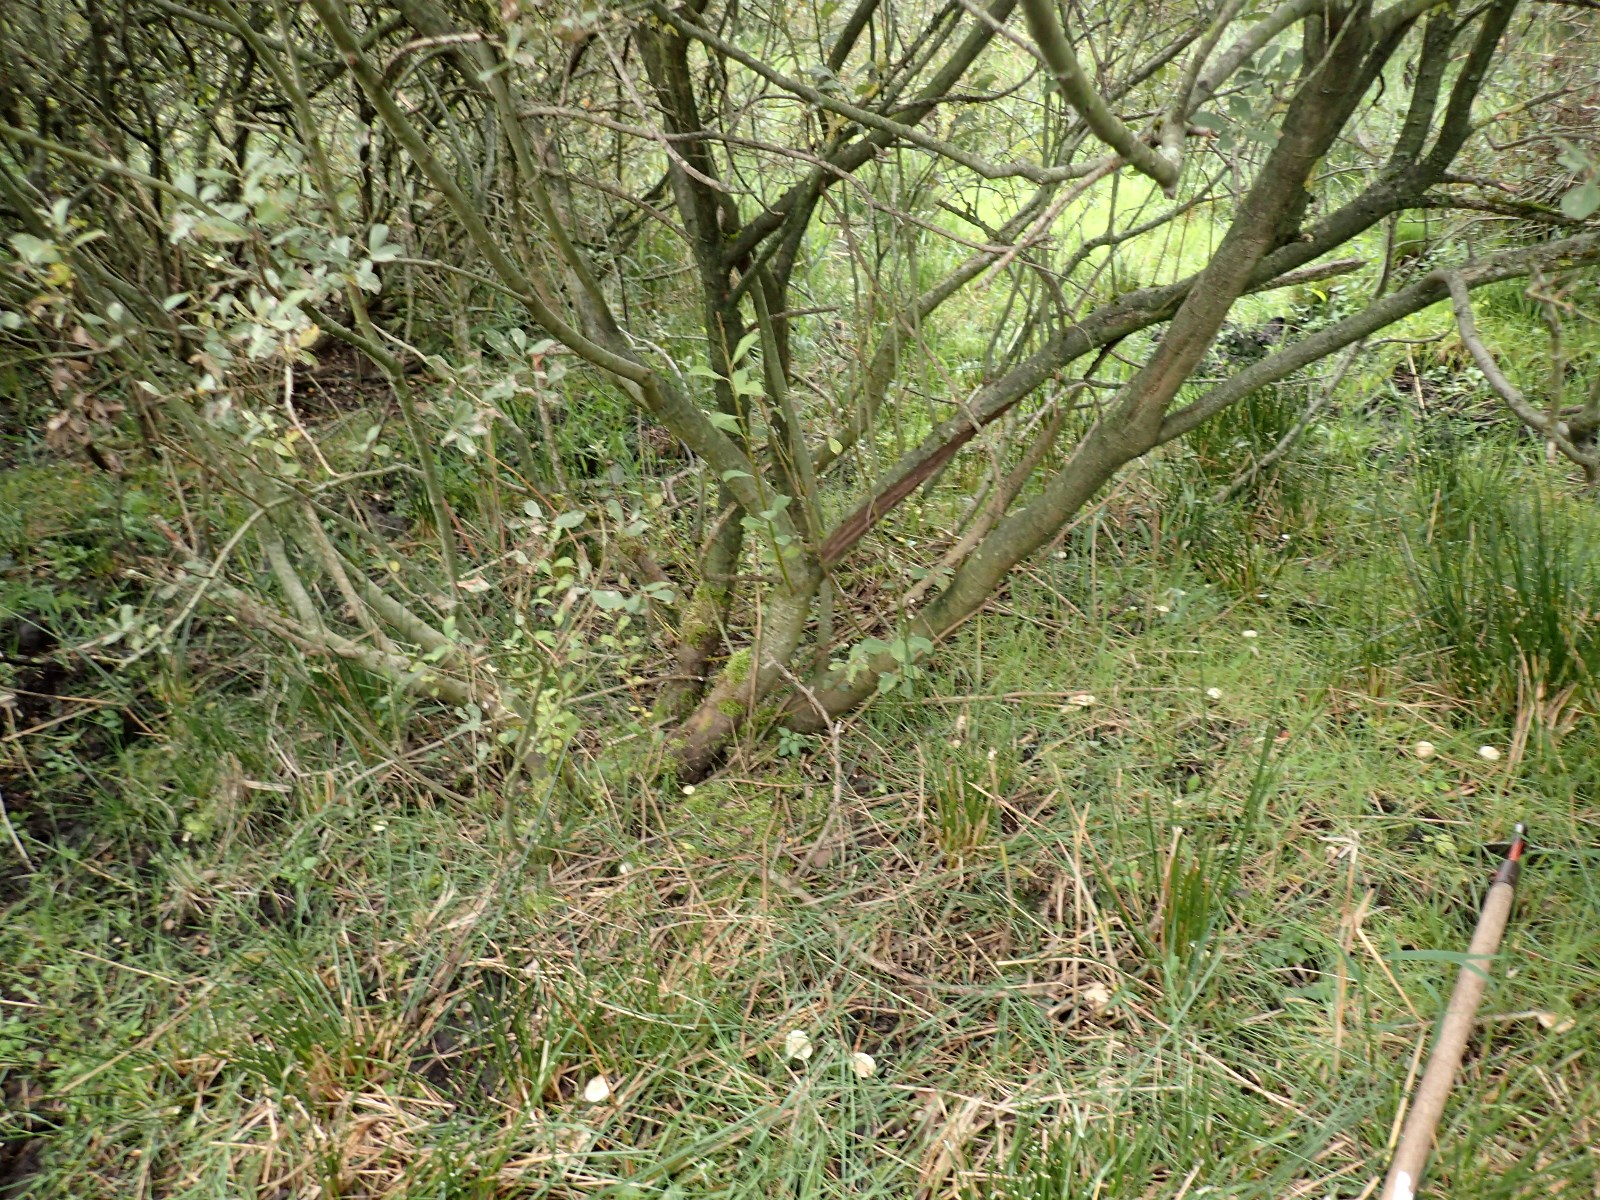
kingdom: Fungi
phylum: Basidiomycota
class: Agaricomycetes
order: Russulales
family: Russulaceae
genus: Lactarius
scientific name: Lactarius aspideus
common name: pile-mælkehat
